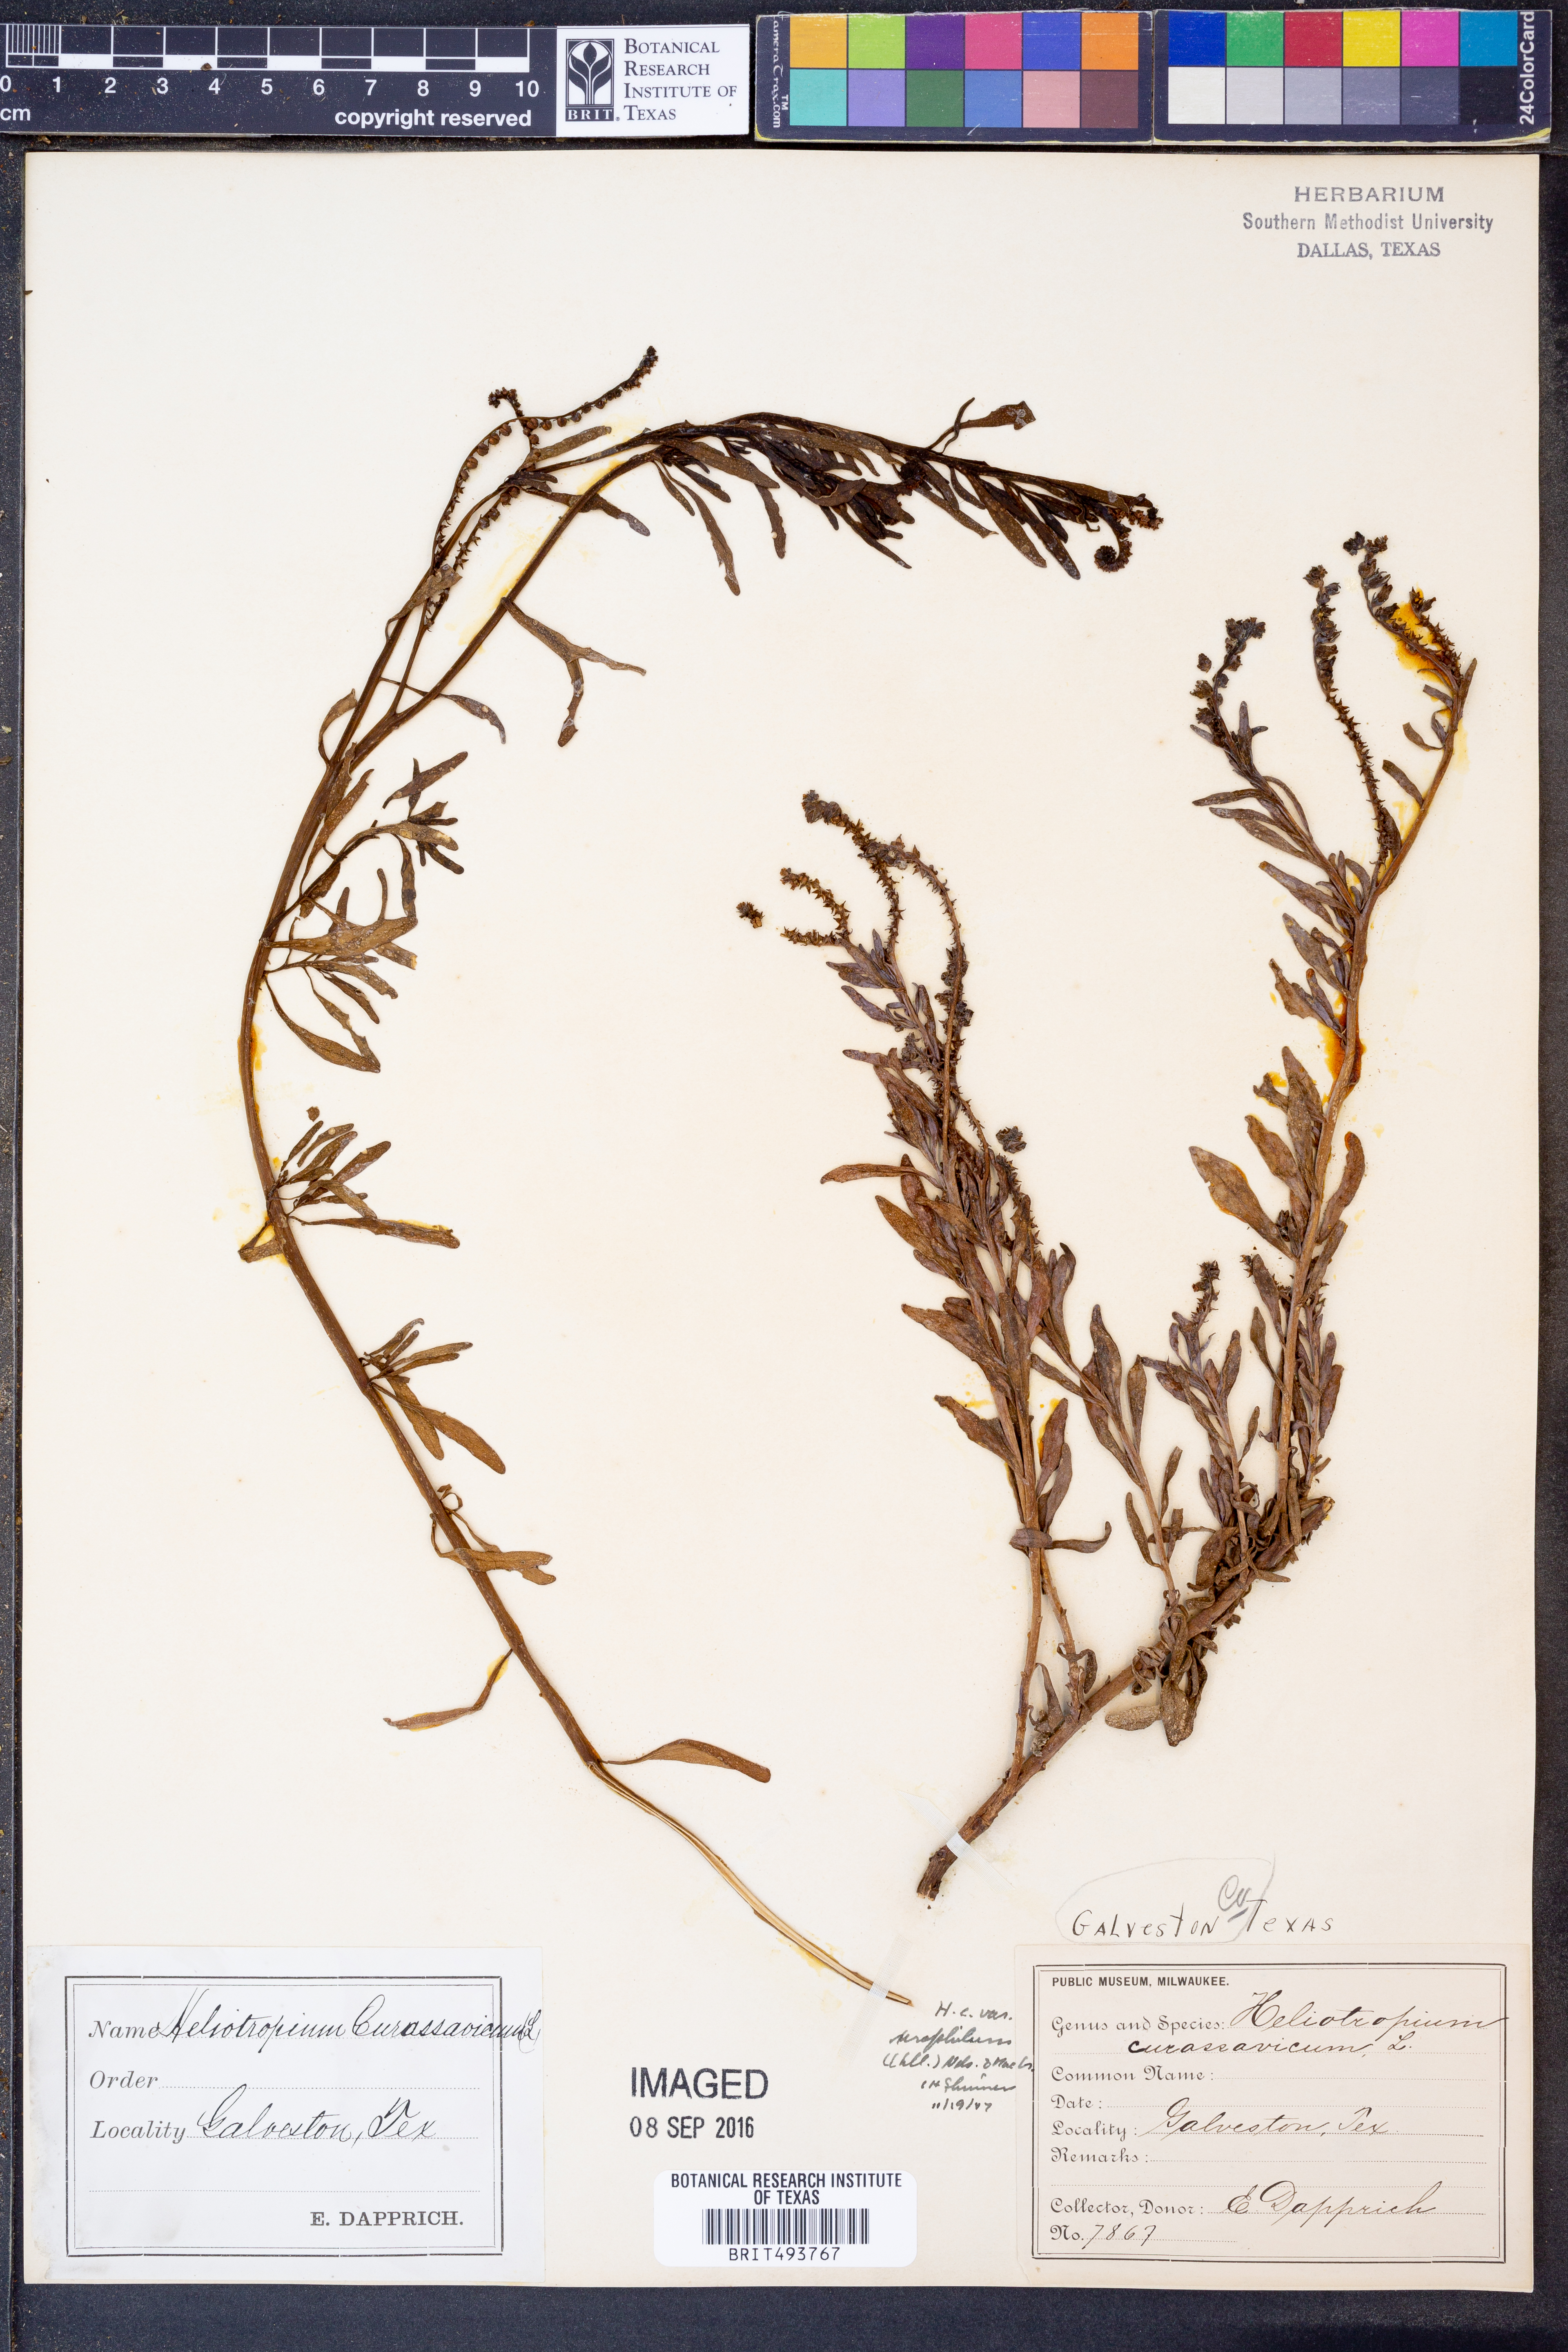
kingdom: Plantae
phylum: Tracheophyta
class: Magnoliopsida
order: Boraginales
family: Heliotropiaceae
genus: Heliotropium
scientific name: Heliotropium curassavicum
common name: Seaside heliotrope
